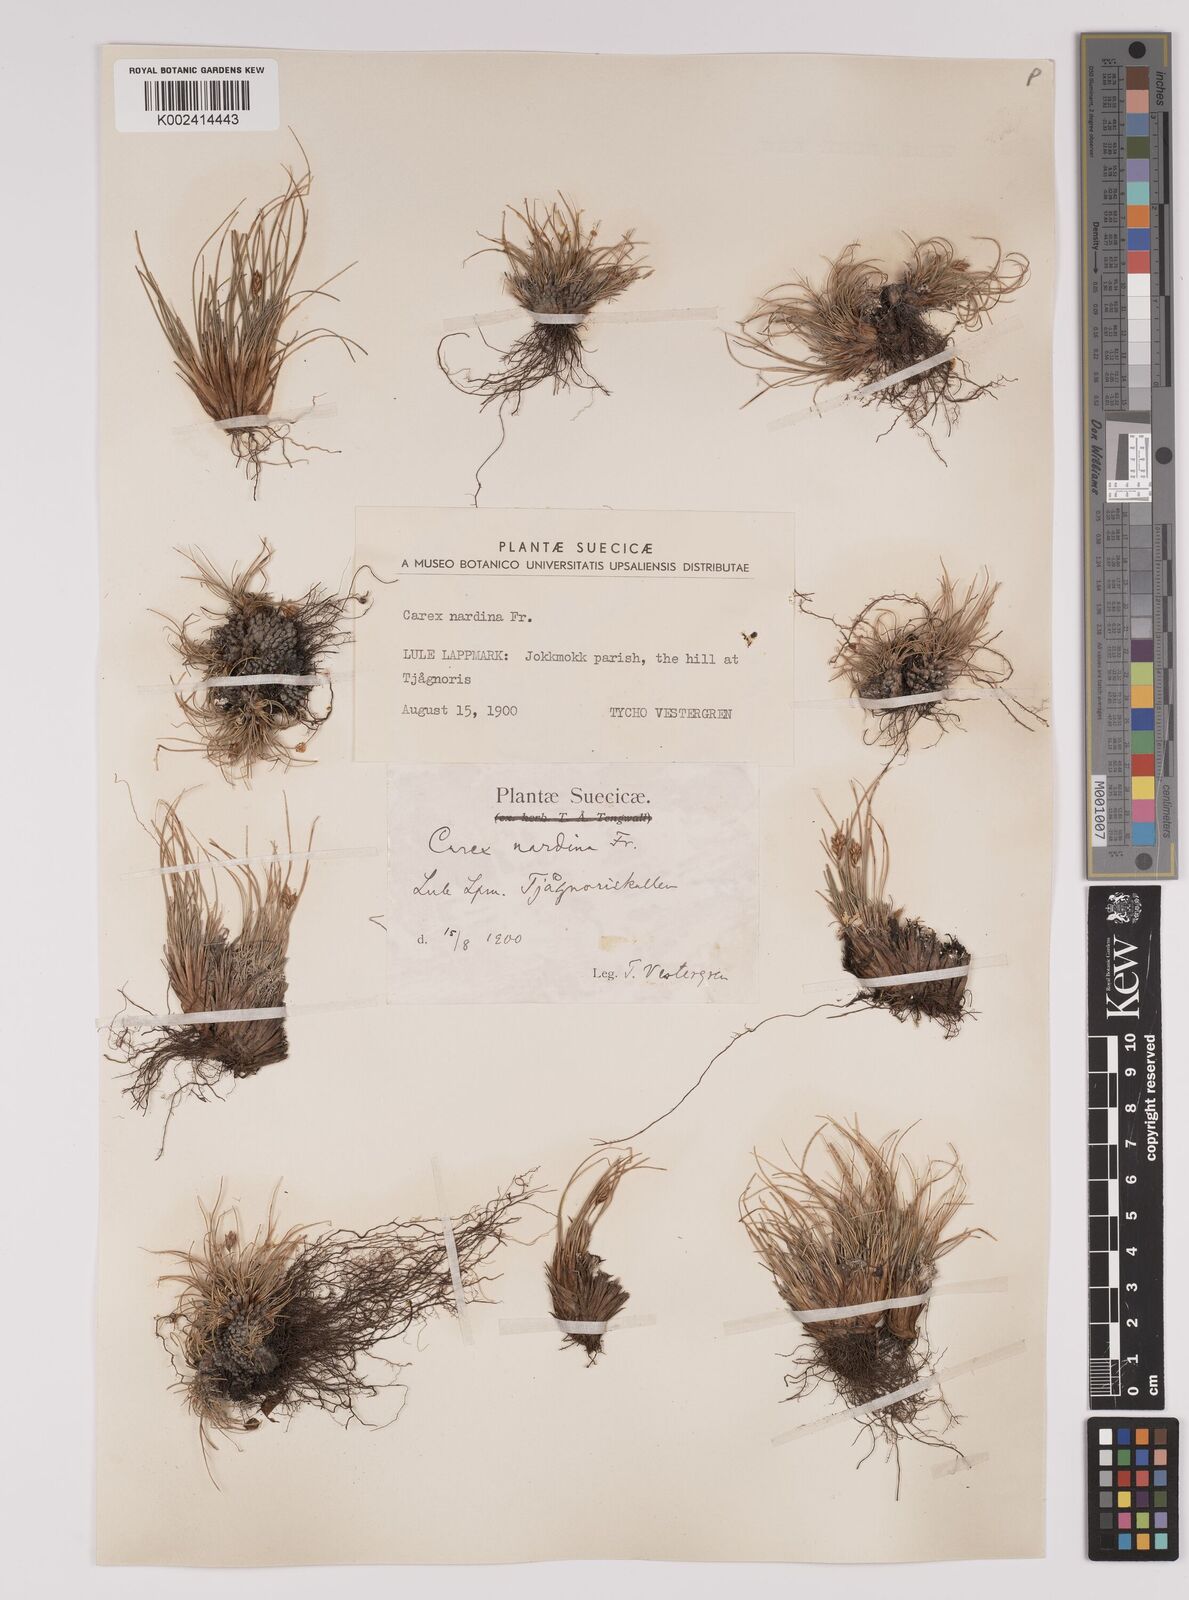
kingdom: Plantae
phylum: Tracheophyta
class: Liliopsida
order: Poales
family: Cyperaceae
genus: Carex
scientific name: Carex nardina
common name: Nard sedge
